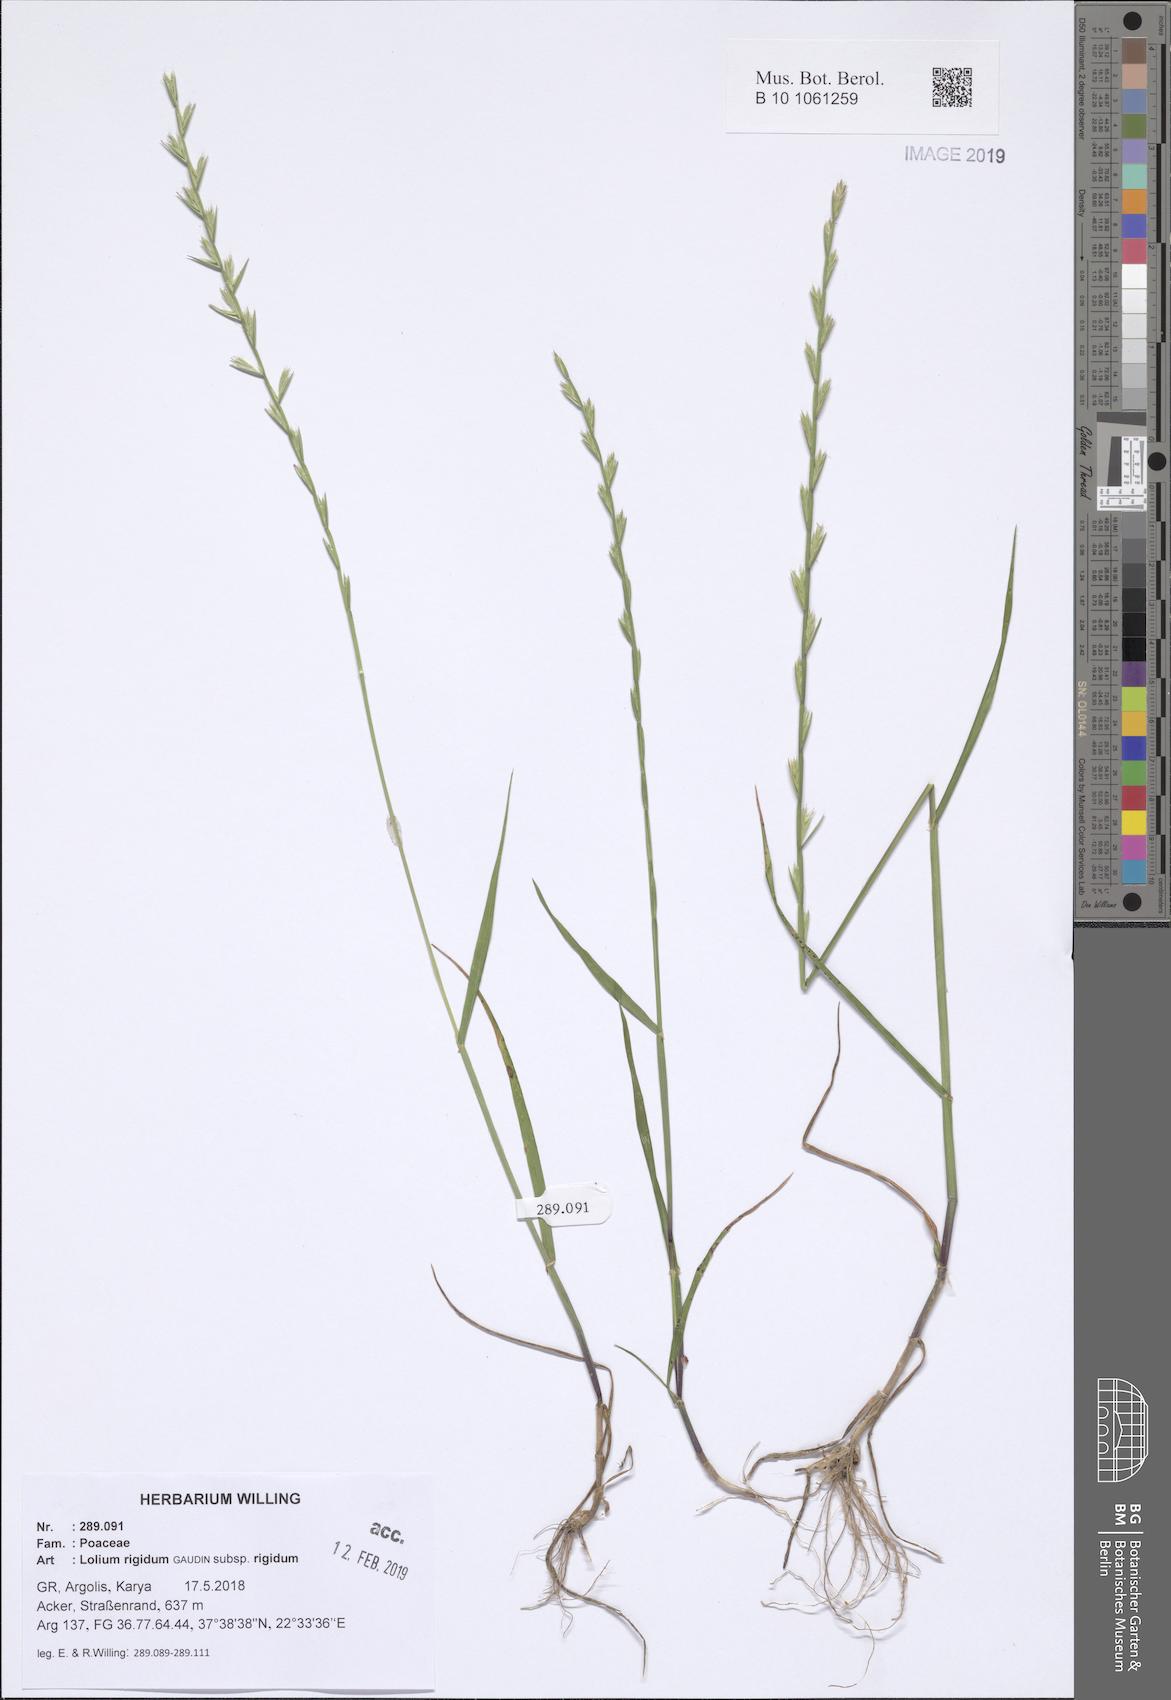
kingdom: Plantae
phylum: Tracheophyta
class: Liliopsida
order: Poales
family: Poaceae
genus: Lolium
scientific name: Lolium rigidum
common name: Wimmera ryegrass
